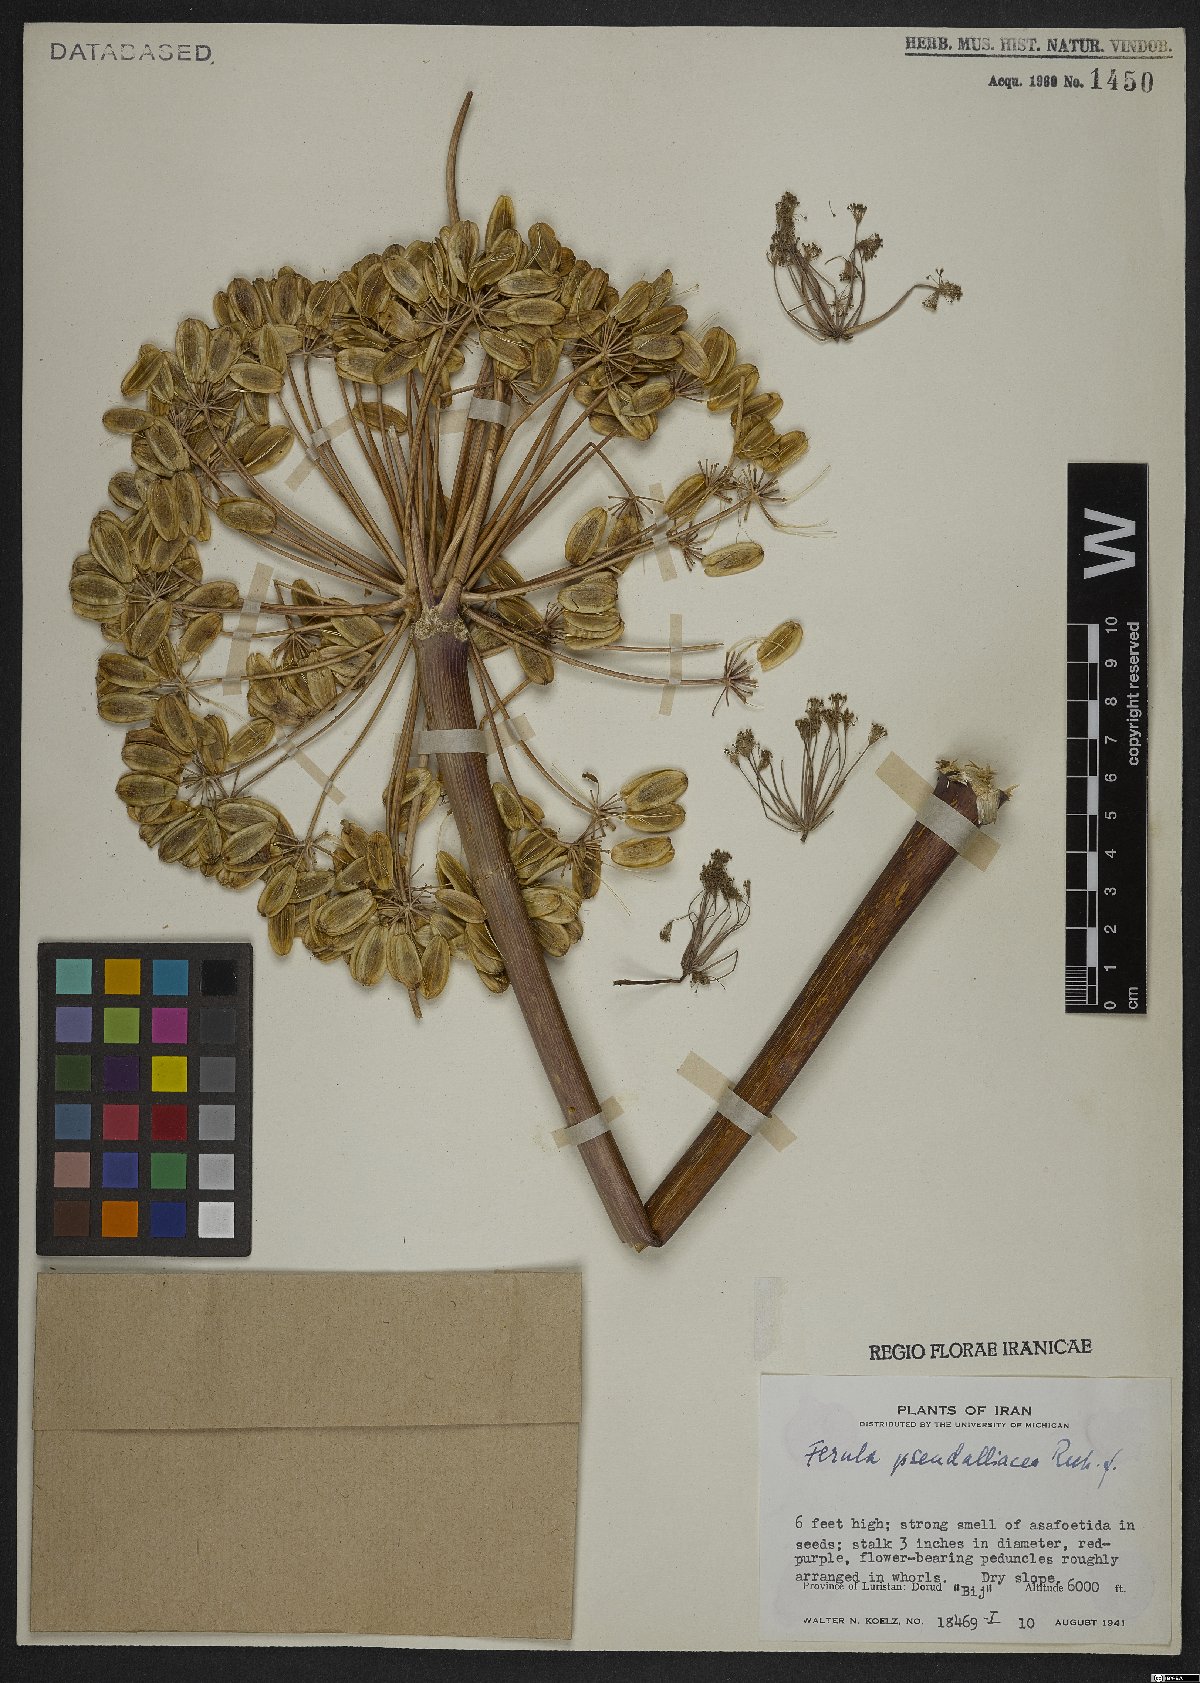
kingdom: Plantae
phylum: Tracheophyta
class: Magnoliopsida
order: Apiales
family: Apiaceae
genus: Ferula
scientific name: Ferula pseudalliacea
